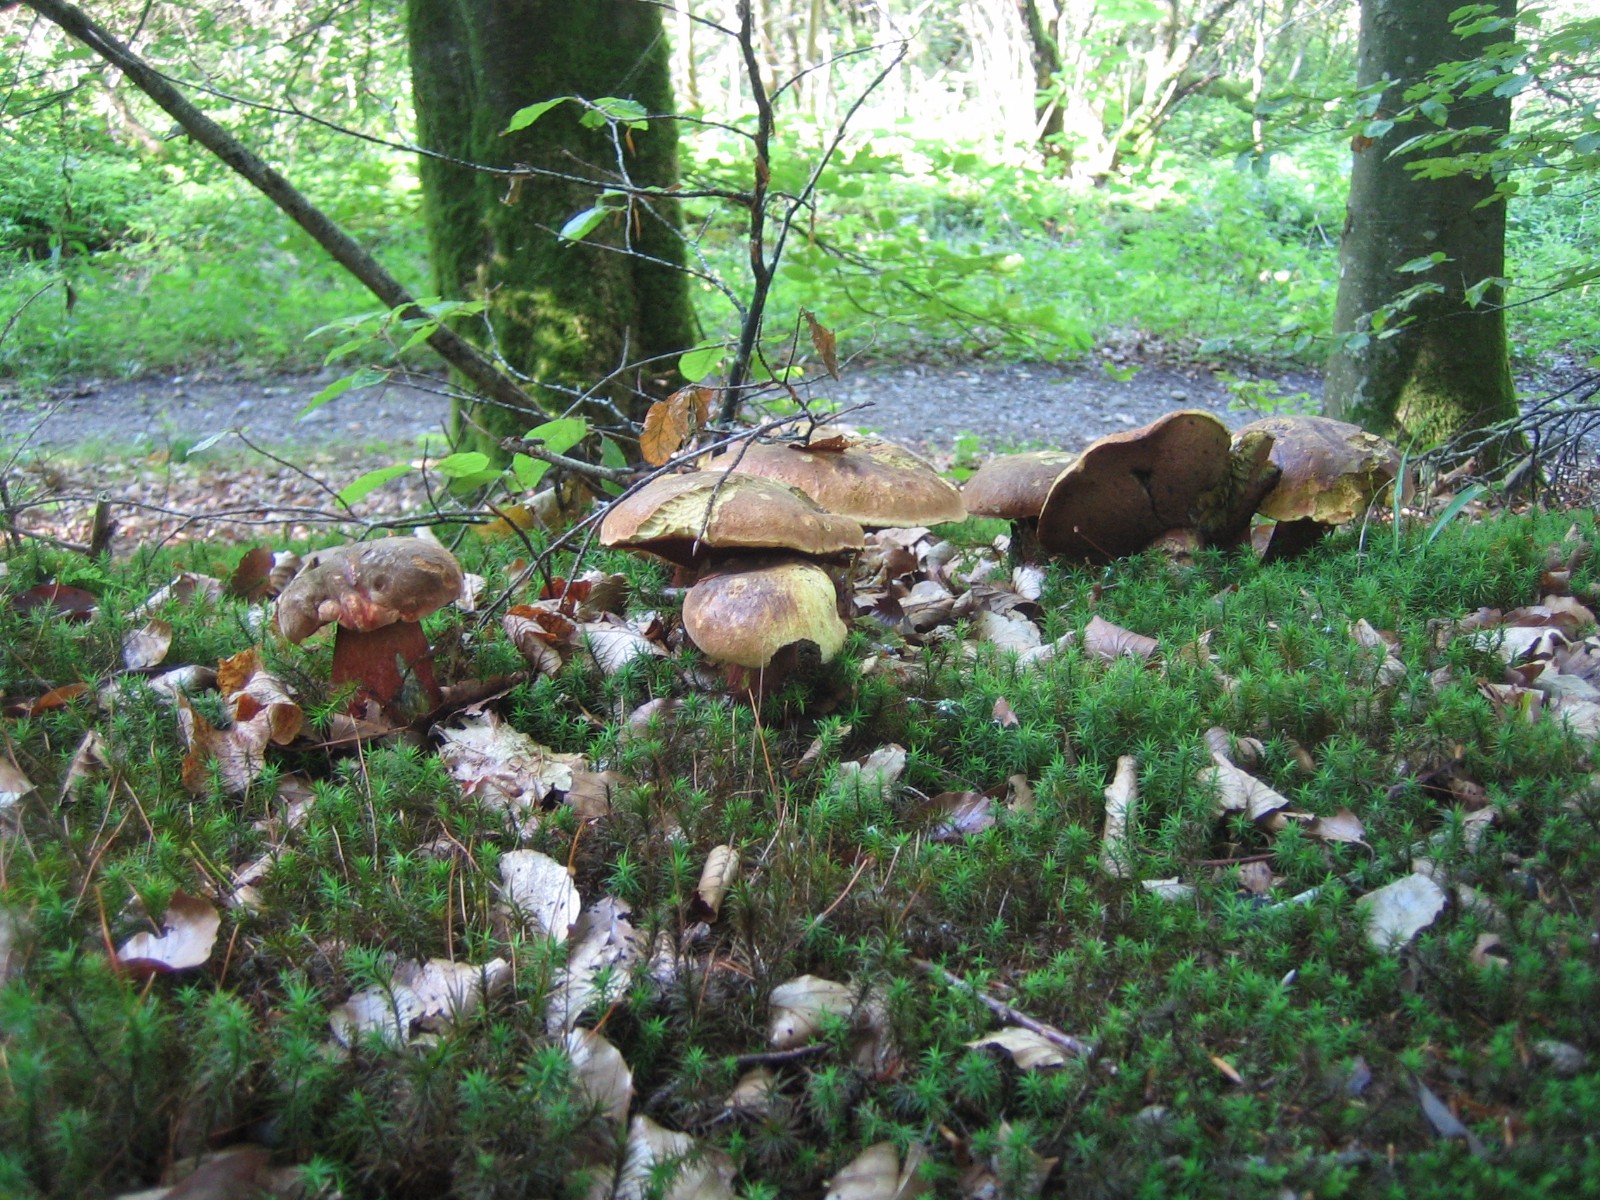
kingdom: Fungi
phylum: Basidiomycota
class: Agaricomycetes
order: Boletales
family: Boletaceae
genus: Neoboletus
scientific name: Neoboletus erythropus
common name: punktstokket indigorørhat
